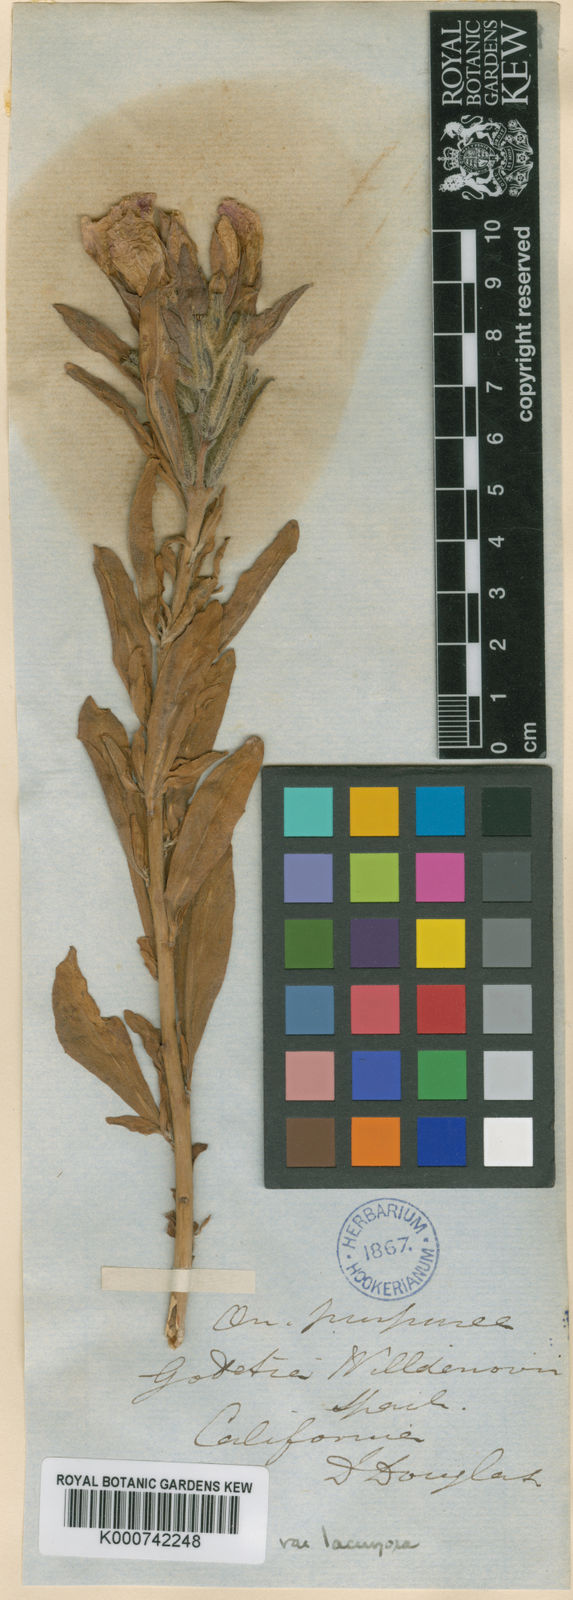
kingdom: Plantae
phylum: Tracheophyta
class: Magnoliopsida
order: Myrtales
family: Onagraceae
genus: Clarkia
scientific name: Clarkia purpurea
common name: Purple clarkia
